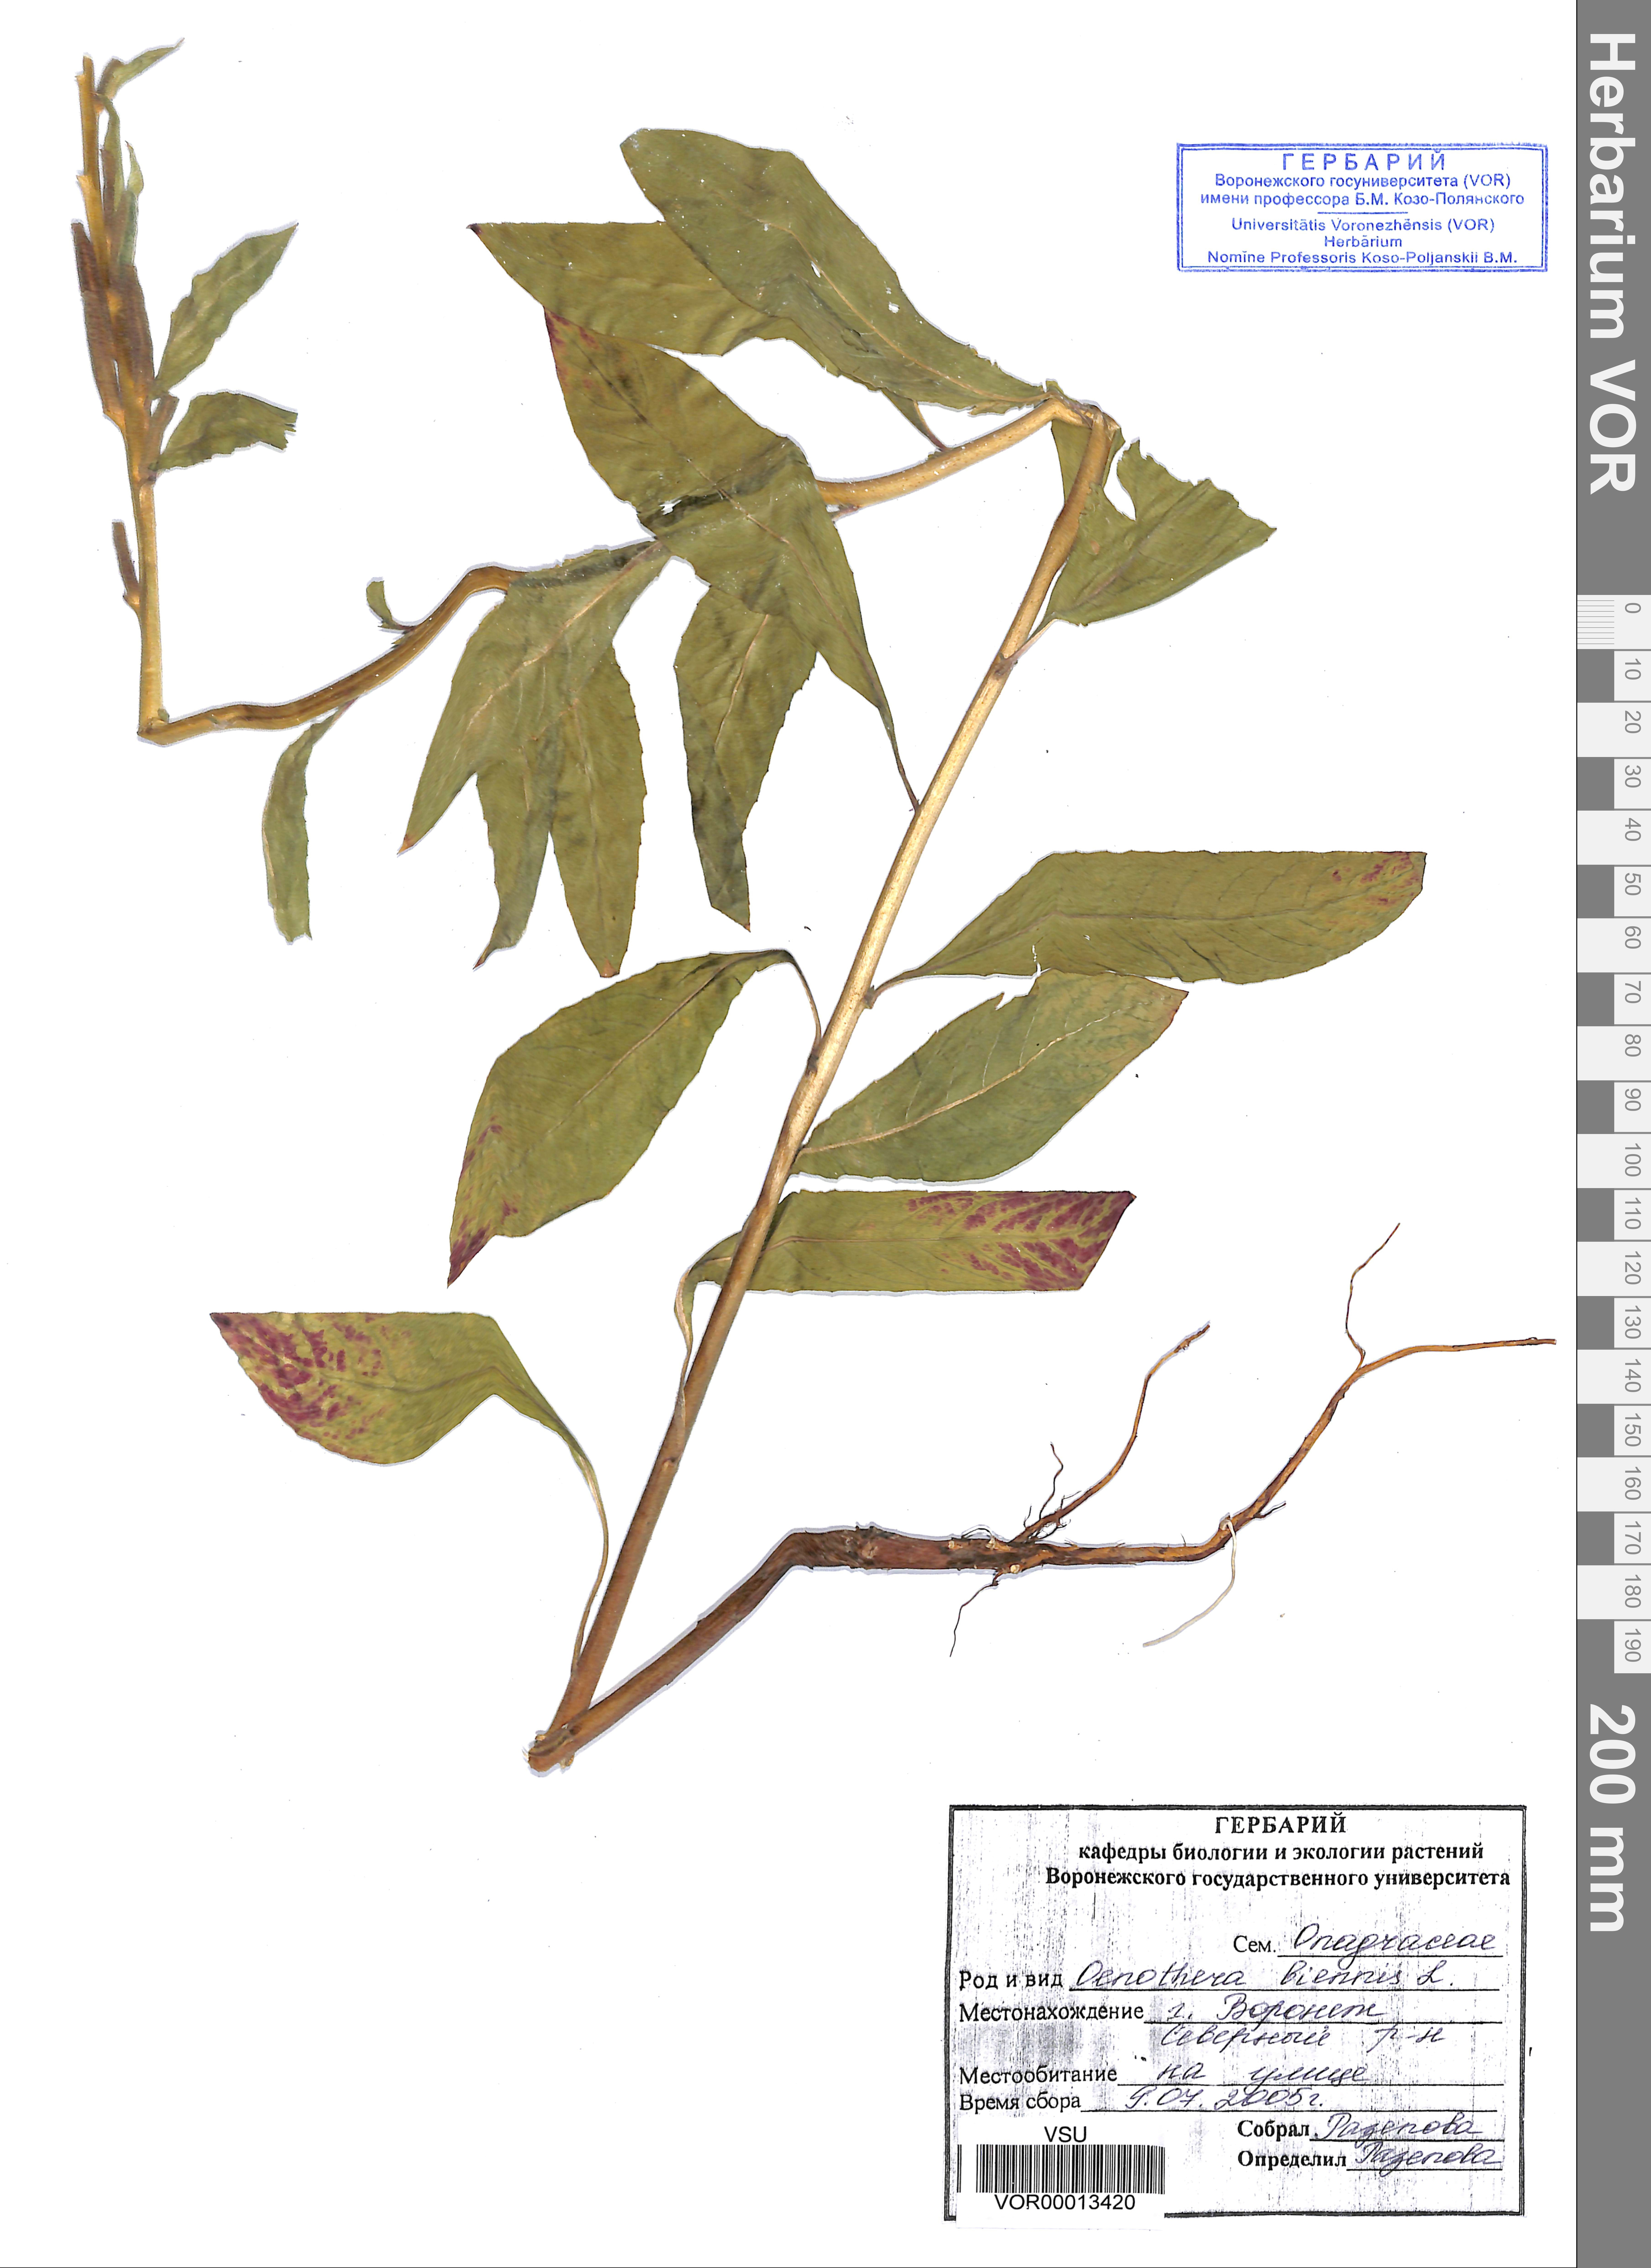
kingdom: Plantae
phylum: Tracheophyta
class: Magnoliopsida
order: Myrtales
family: Onagraceae
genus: Oenothera
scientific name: Oenothera biennis
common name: Common evening-primrose
